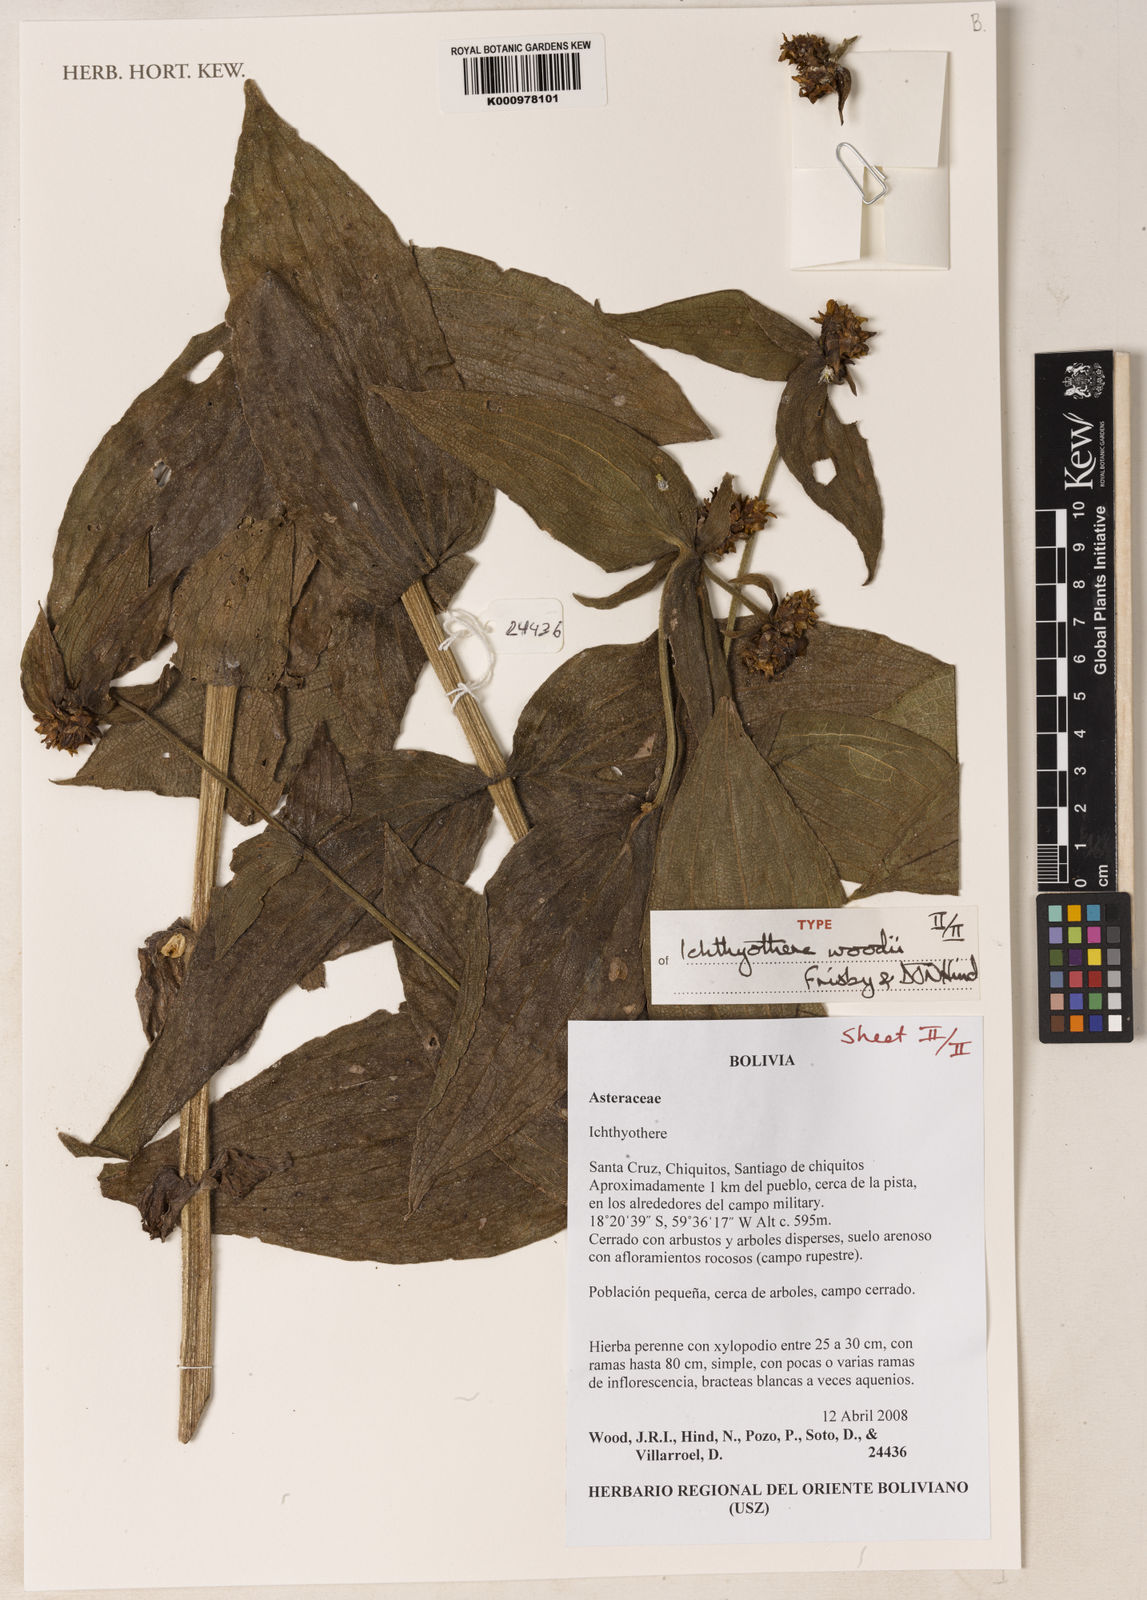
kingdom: Plantae
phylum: Tracheophyta
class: Magnoliopsida
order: Asterales
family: Asteraceae
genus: Ichthyothere
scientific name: Ichthyothere woodii
